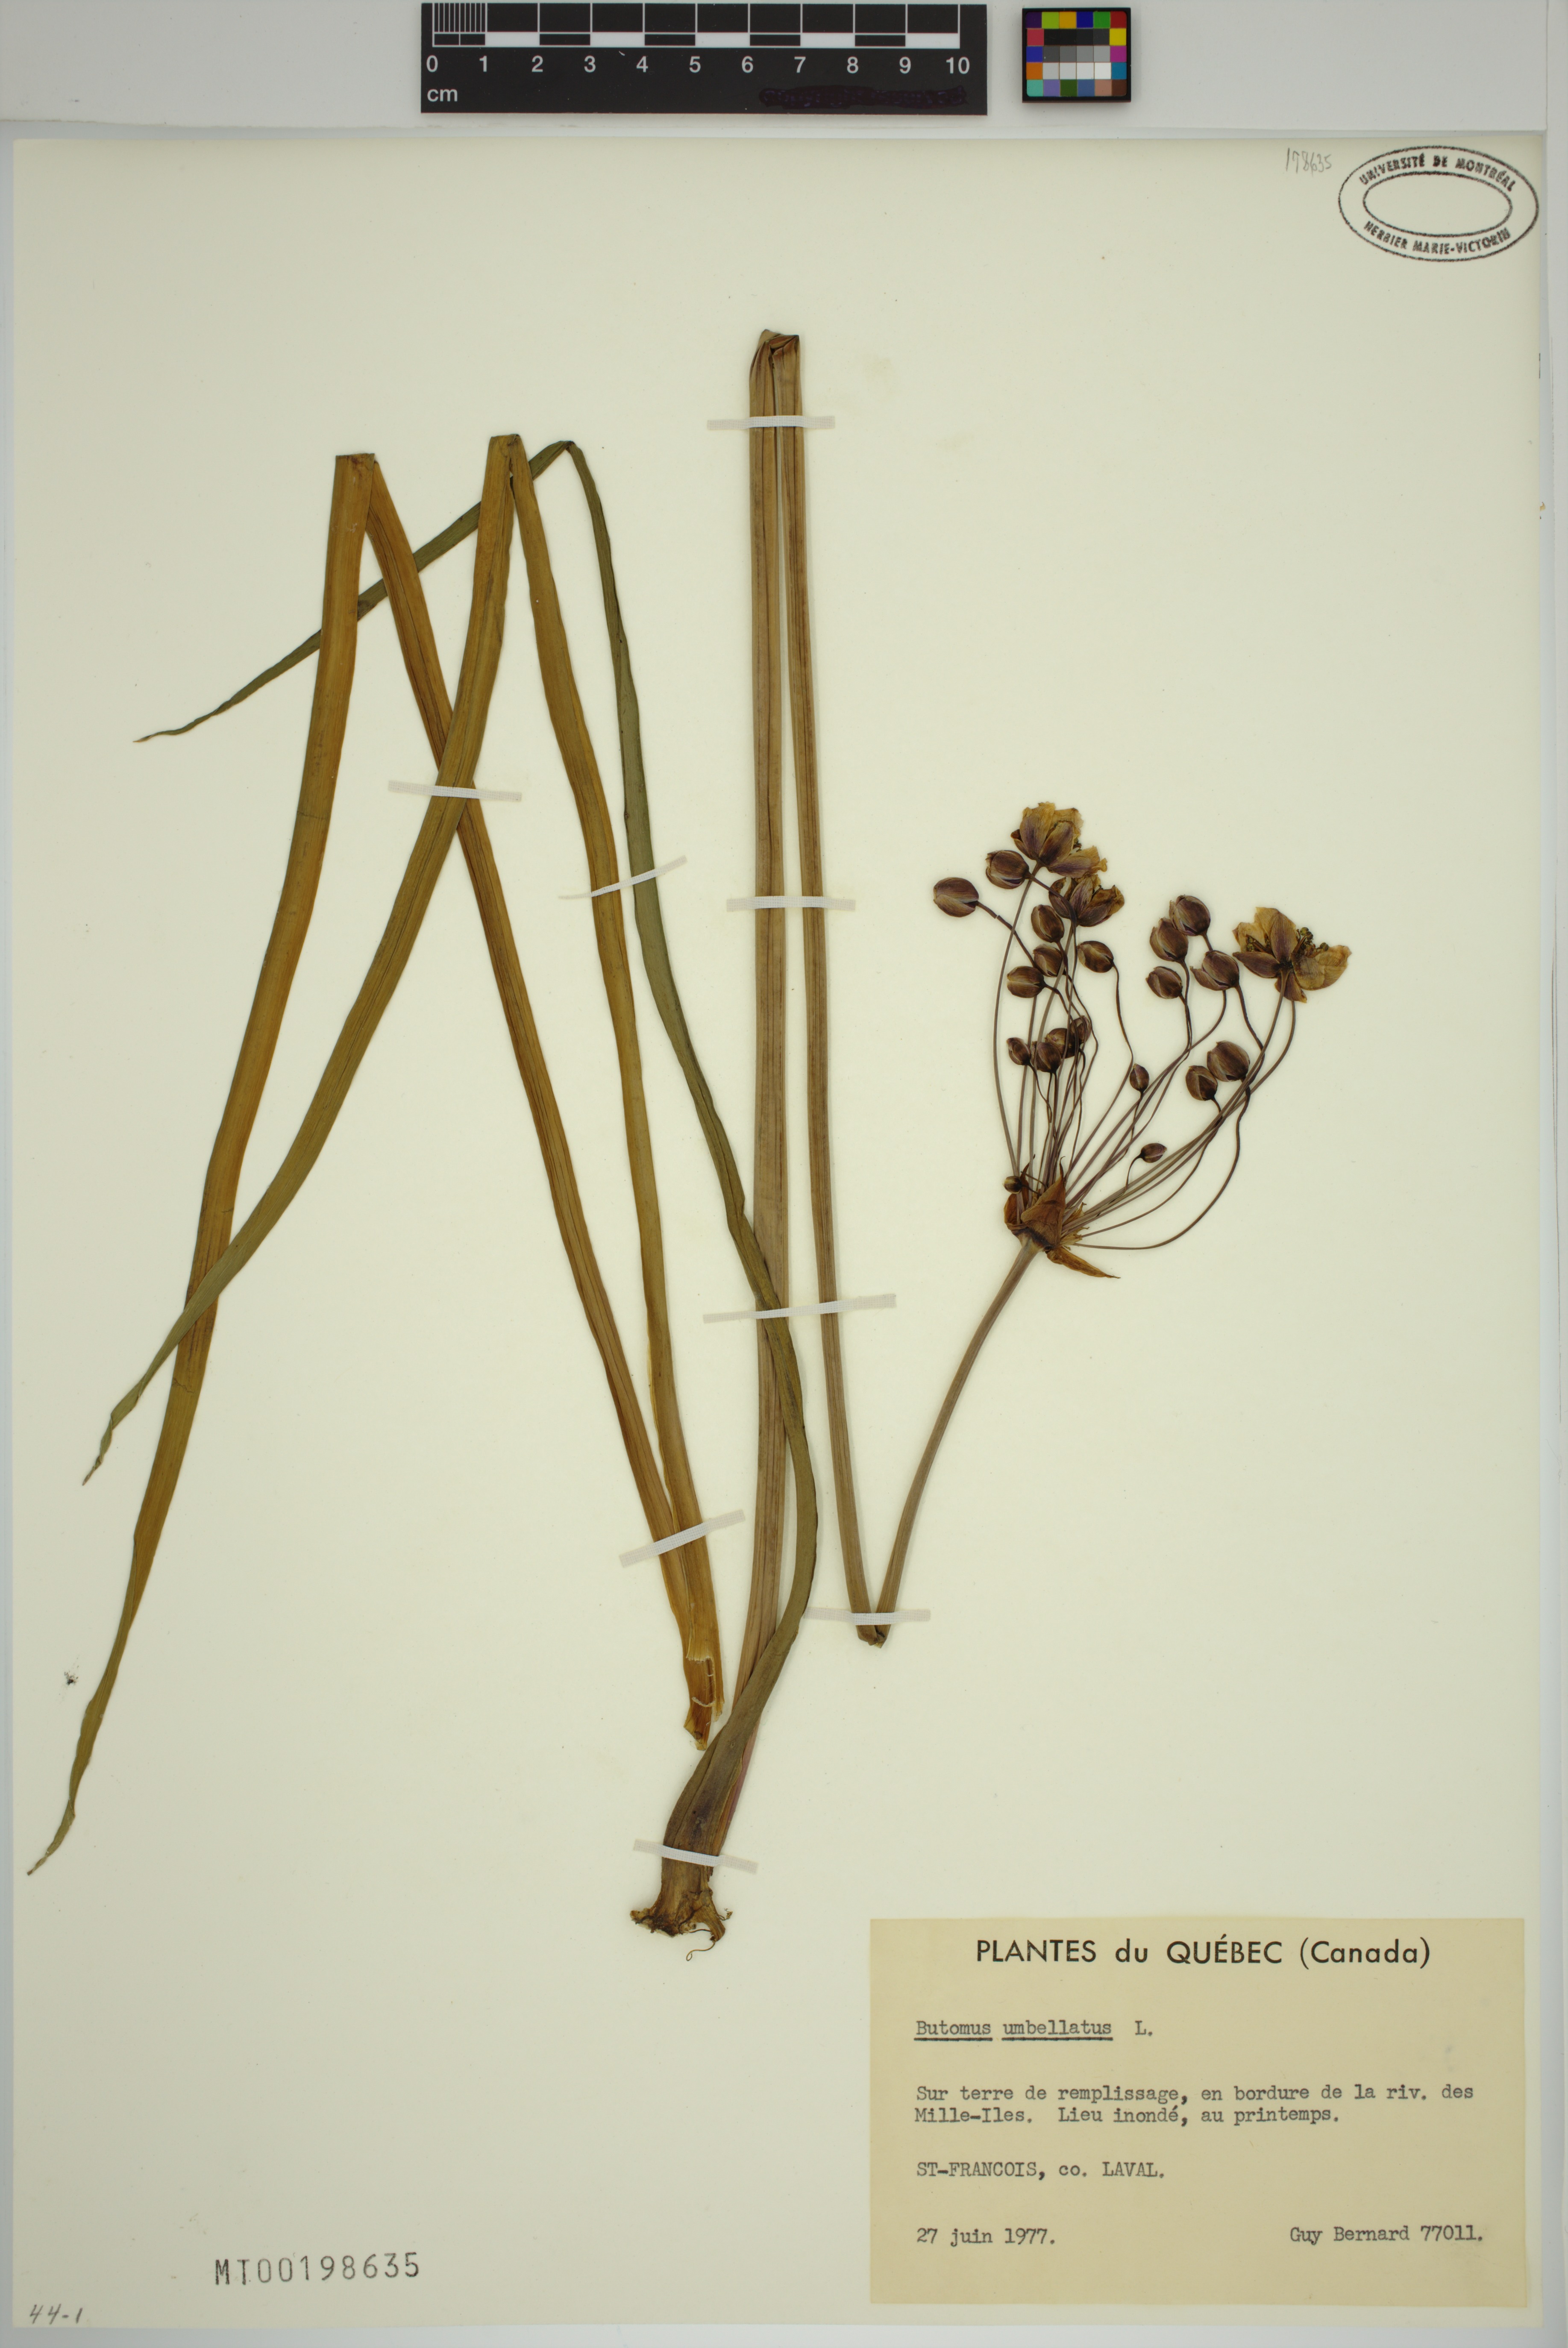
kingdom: Plantae
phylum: Tracheophyta
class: Liliopsida
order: Alismatales
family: Butomaceae
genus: Butomus
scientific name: Butomus umbellatus
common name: Flowering-rush
